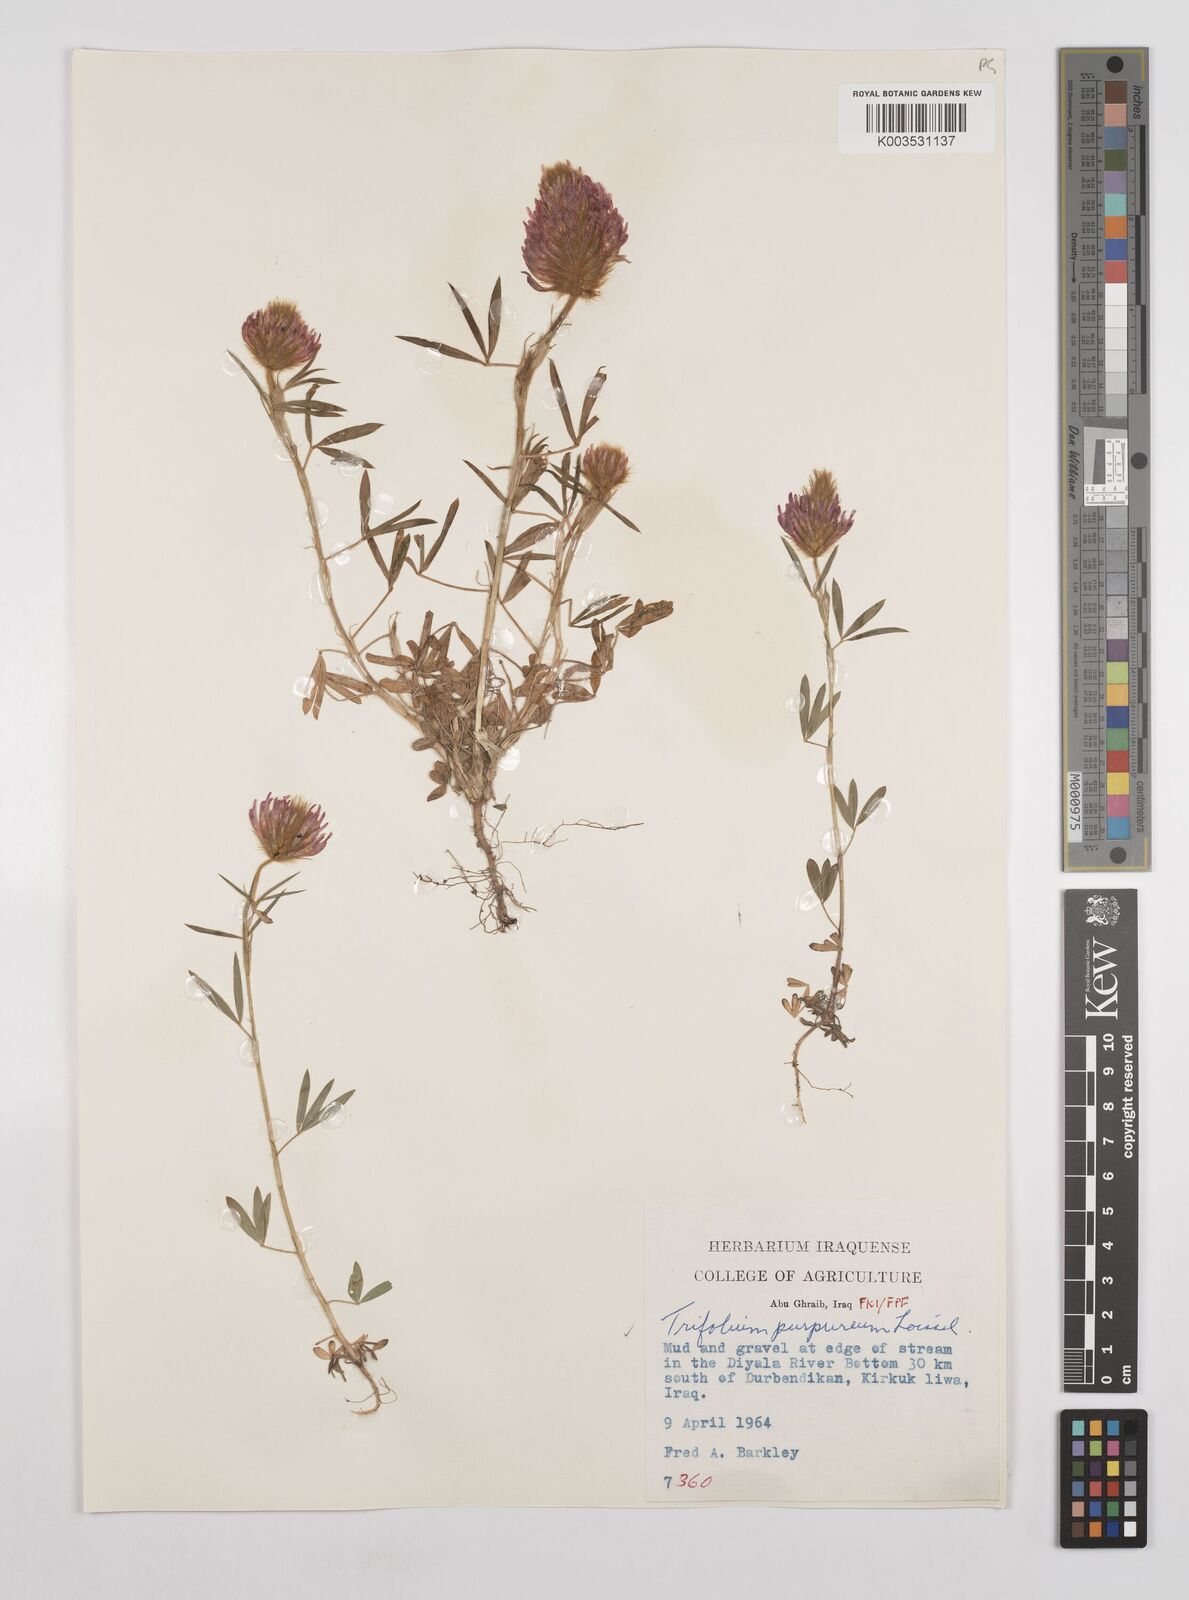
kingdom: Plantae
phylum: Tracheophyta
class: Magnoliopsida
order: Fabales
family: Fabaceae
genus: Trifolium
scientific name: Trifolium purpureum
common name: Purple clover
